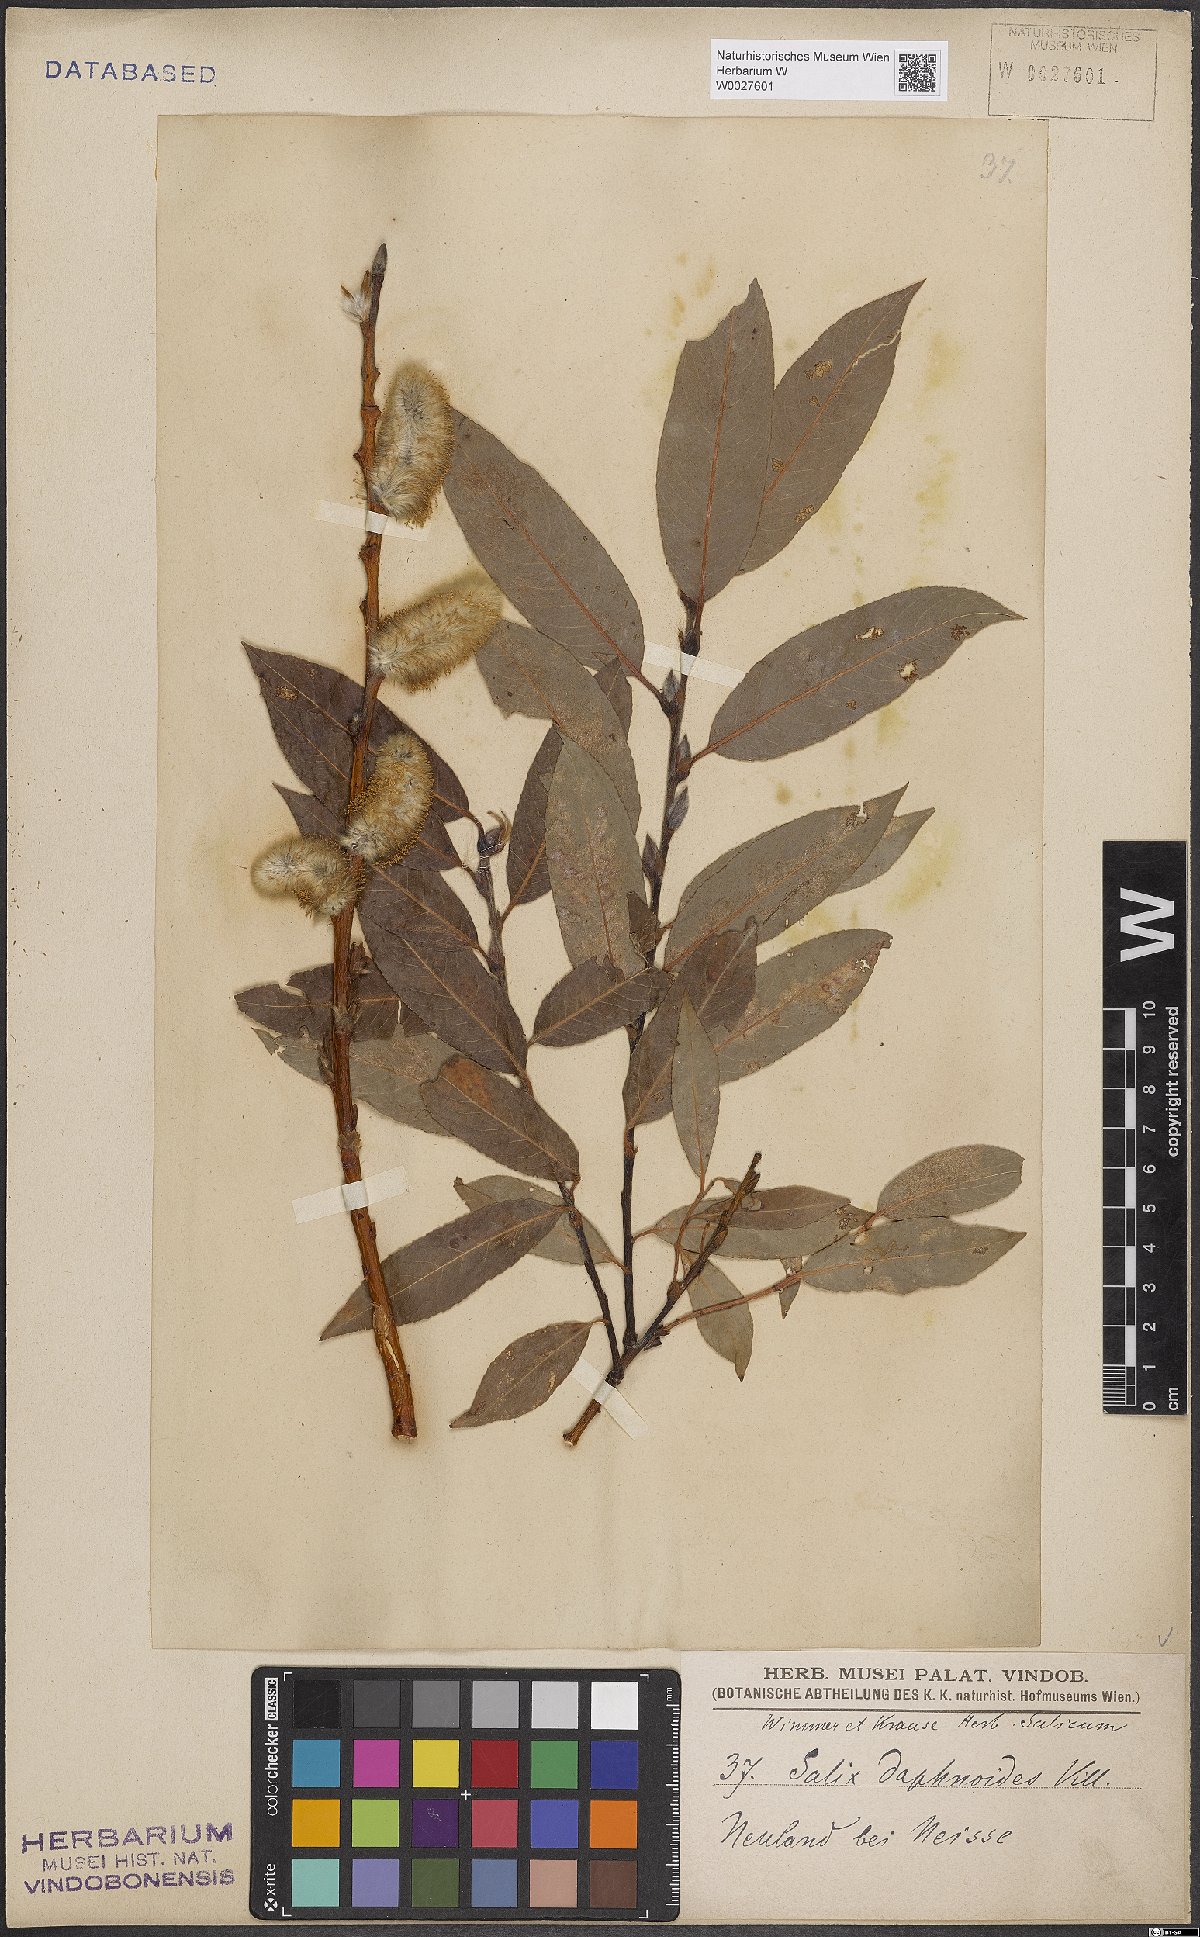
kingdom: Plantae
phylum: Tracheophyta
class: Magnoliopsida
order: Malpighiales
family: Salicaceae
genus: Salix
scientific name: Salix daphnoides
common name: European violet-willow
